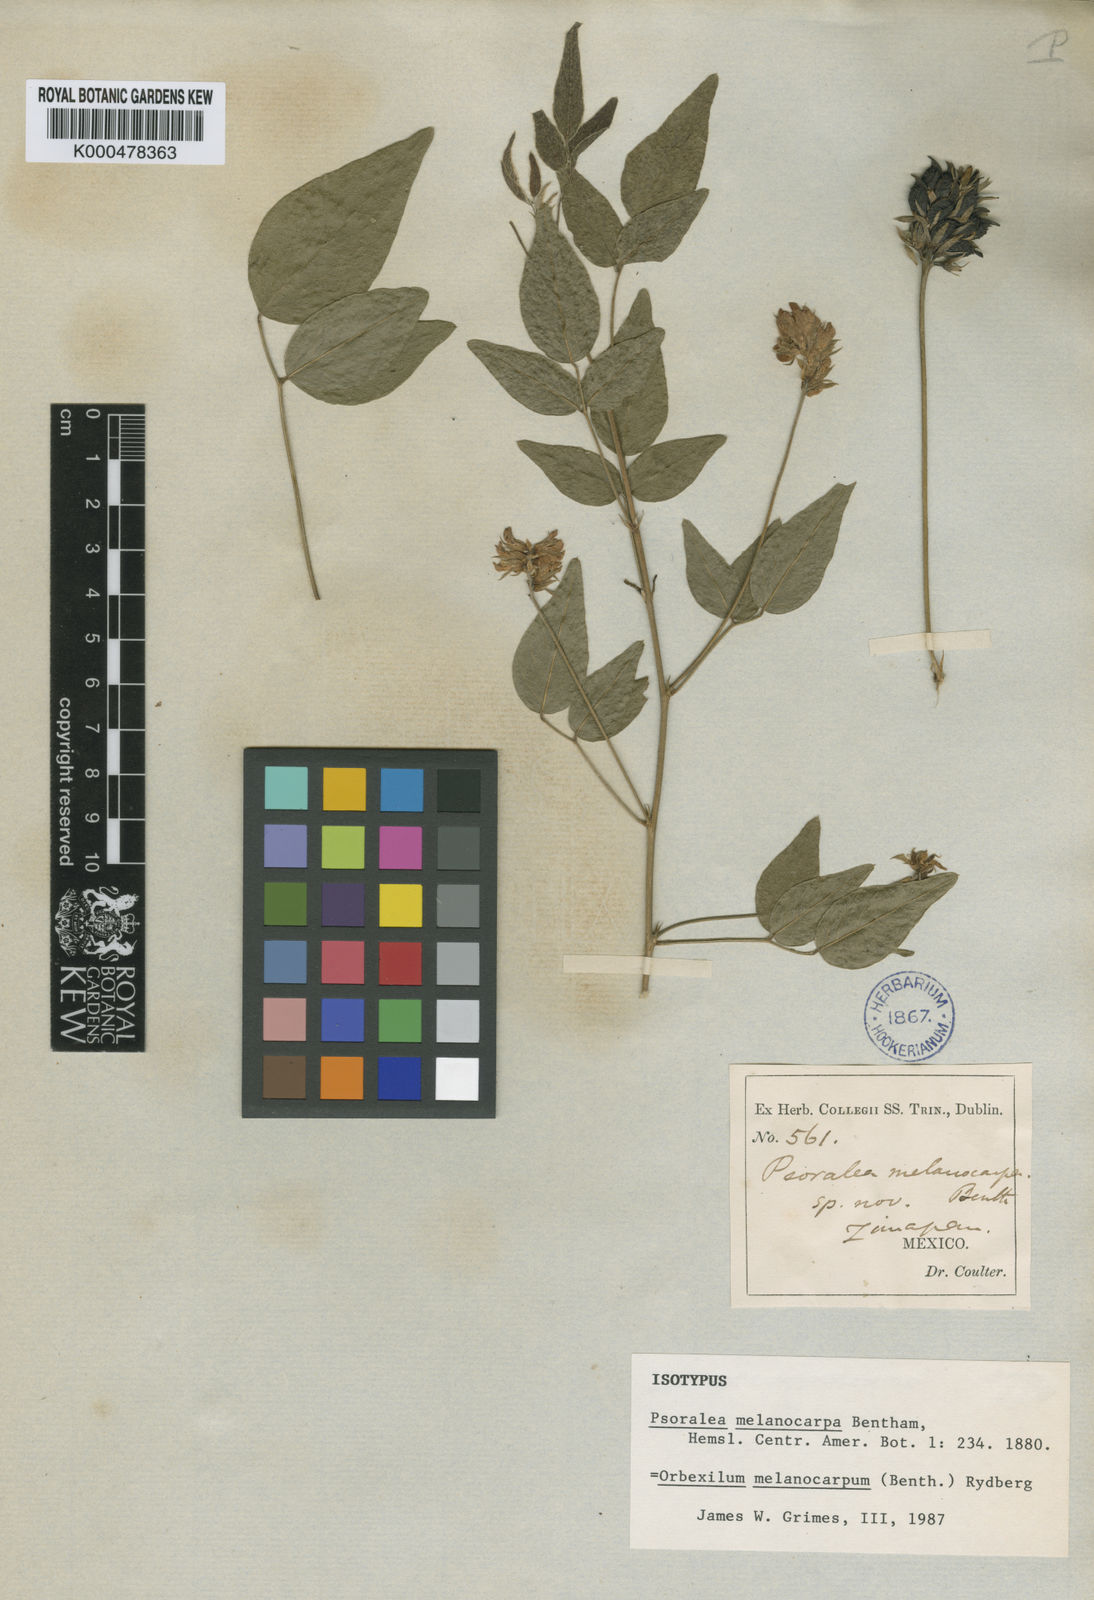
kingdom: Plantae
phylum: Tracheophyta
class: Magnoliopsida
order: Fabales
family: Fabaceae
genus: Orbexilum
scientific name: Orbexilum melanocarpum
